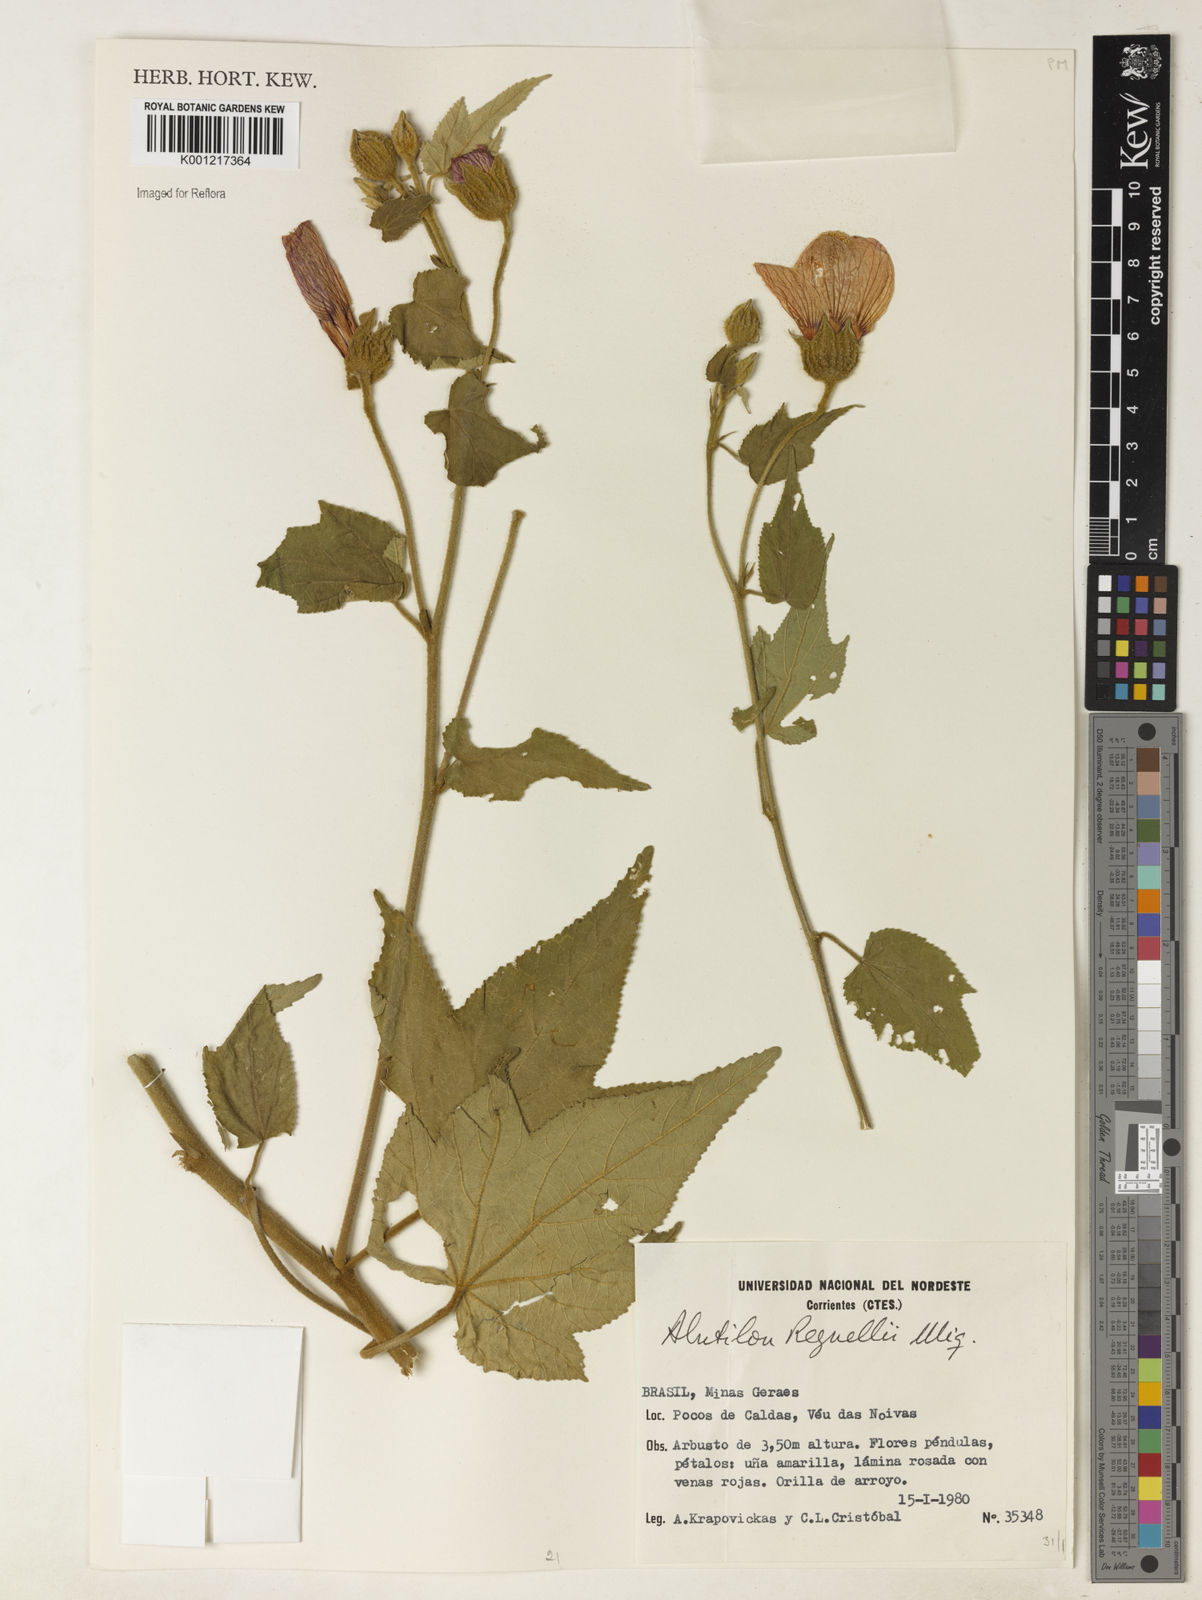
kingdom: Plantae
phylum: Tracheophyta
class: Magnoliopsida
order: Malvales
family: Malvaceae
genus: Callianthe
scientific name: Callianthe regnellii
